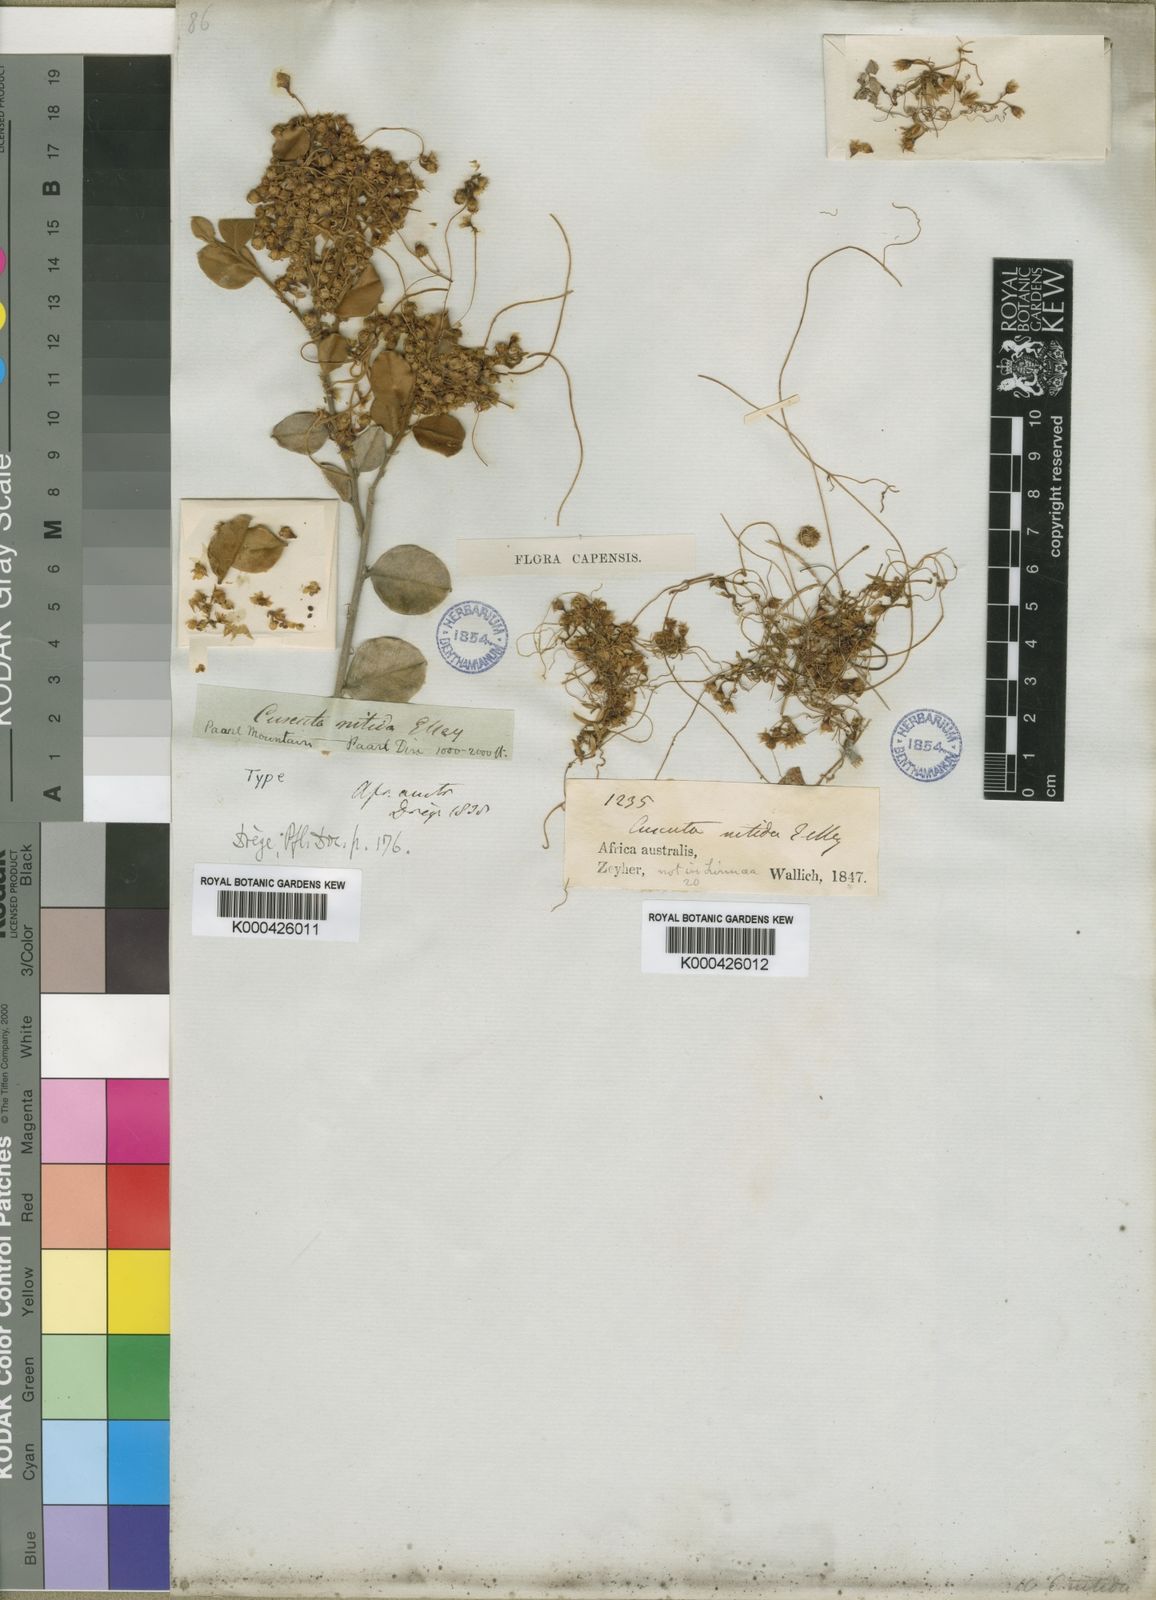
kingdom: Plantae
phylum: Tracheophyta
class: Magnoliopsida
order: Solanales
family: Convolvulaceae
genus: Cuscuta
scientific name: Cuscuta
